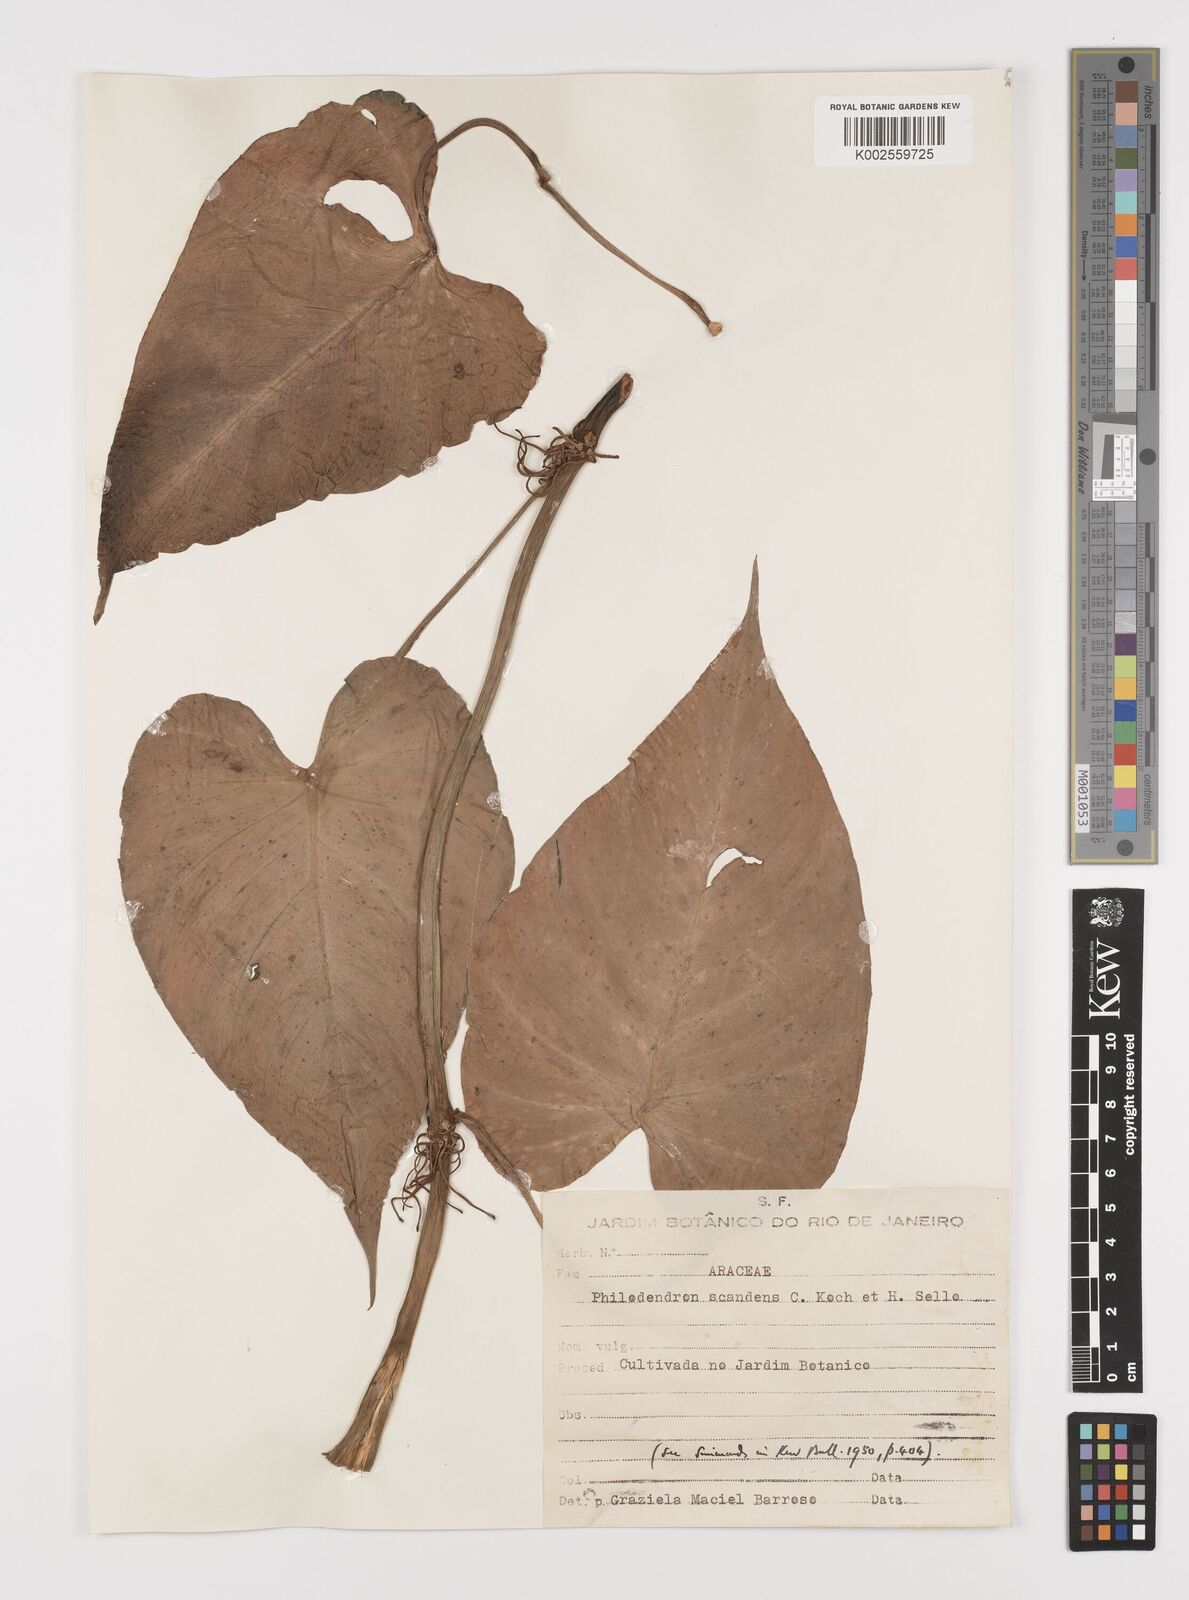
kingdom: Plantae
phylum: Tracheophyta
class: Liliopsida
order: Alismatales
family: Araceae
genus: Philodendron
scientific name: Philodendron hederaceum
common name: Vilevine
